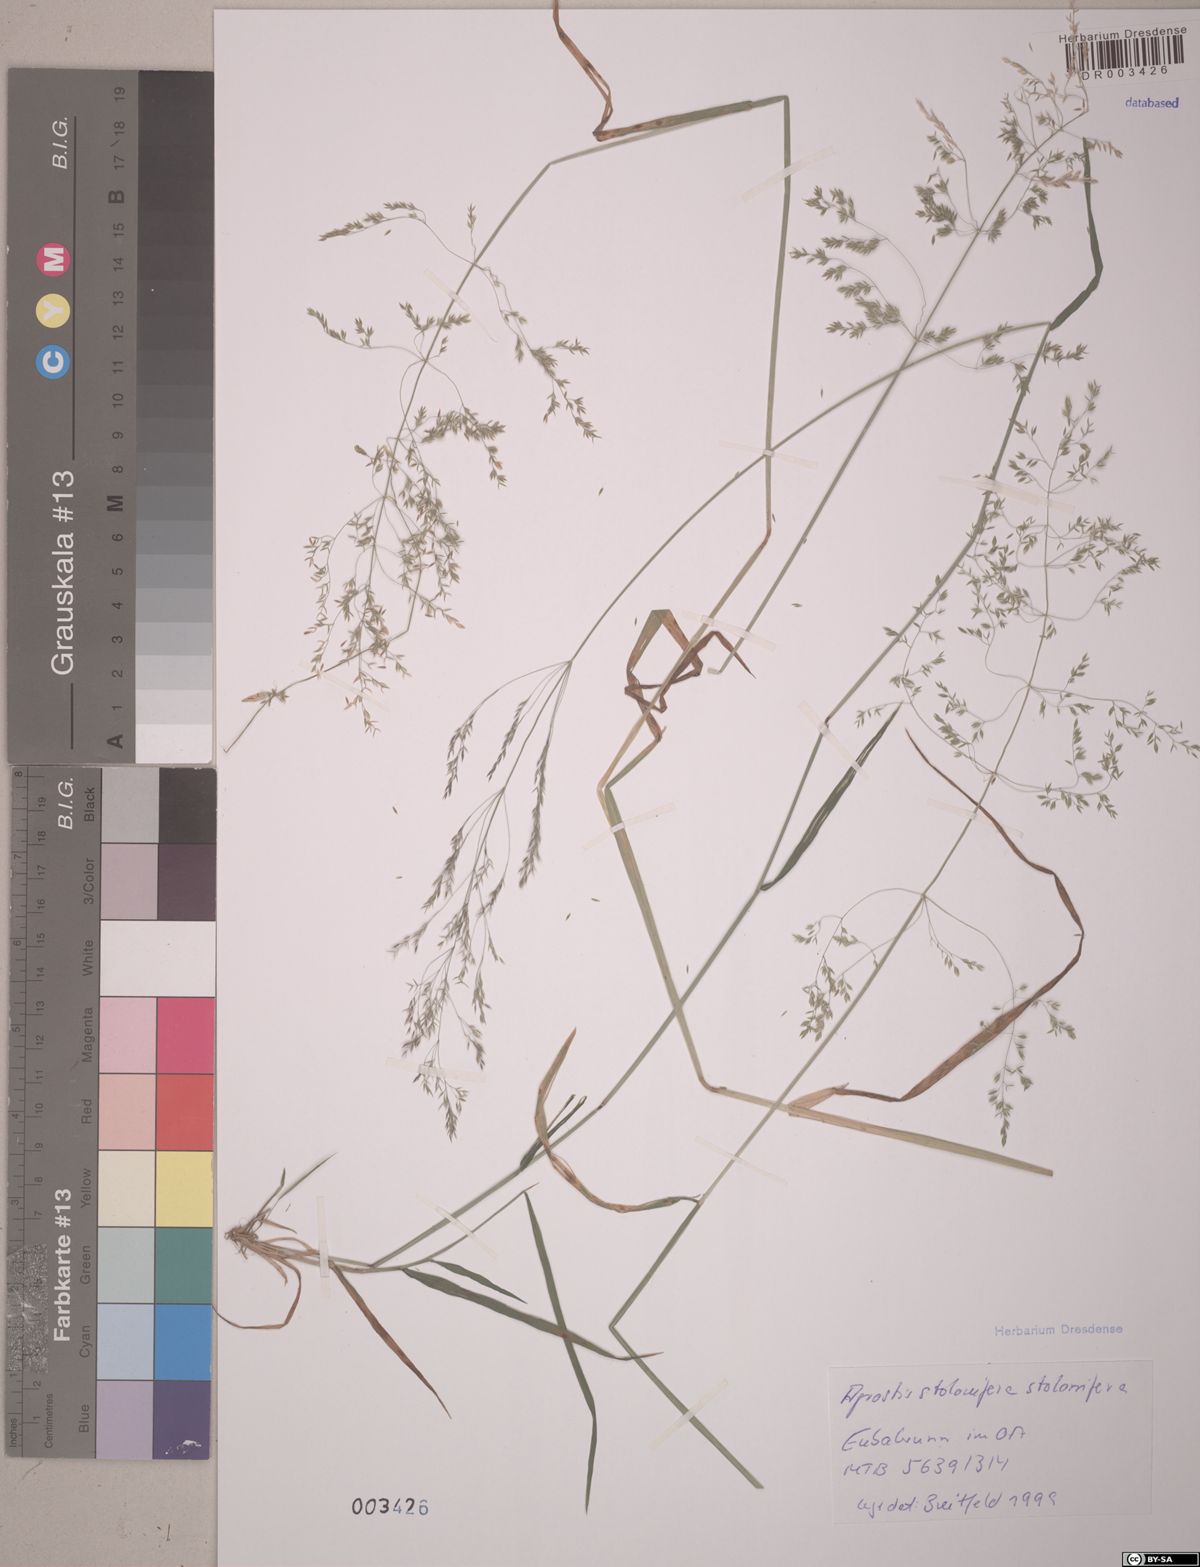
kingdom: Plantae
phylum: Tracheophyta
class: Liliopsida
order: Poales
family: Poaceae
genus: Agrostis
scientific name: Agrostis stolonifera
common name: Creeping bentgrass
